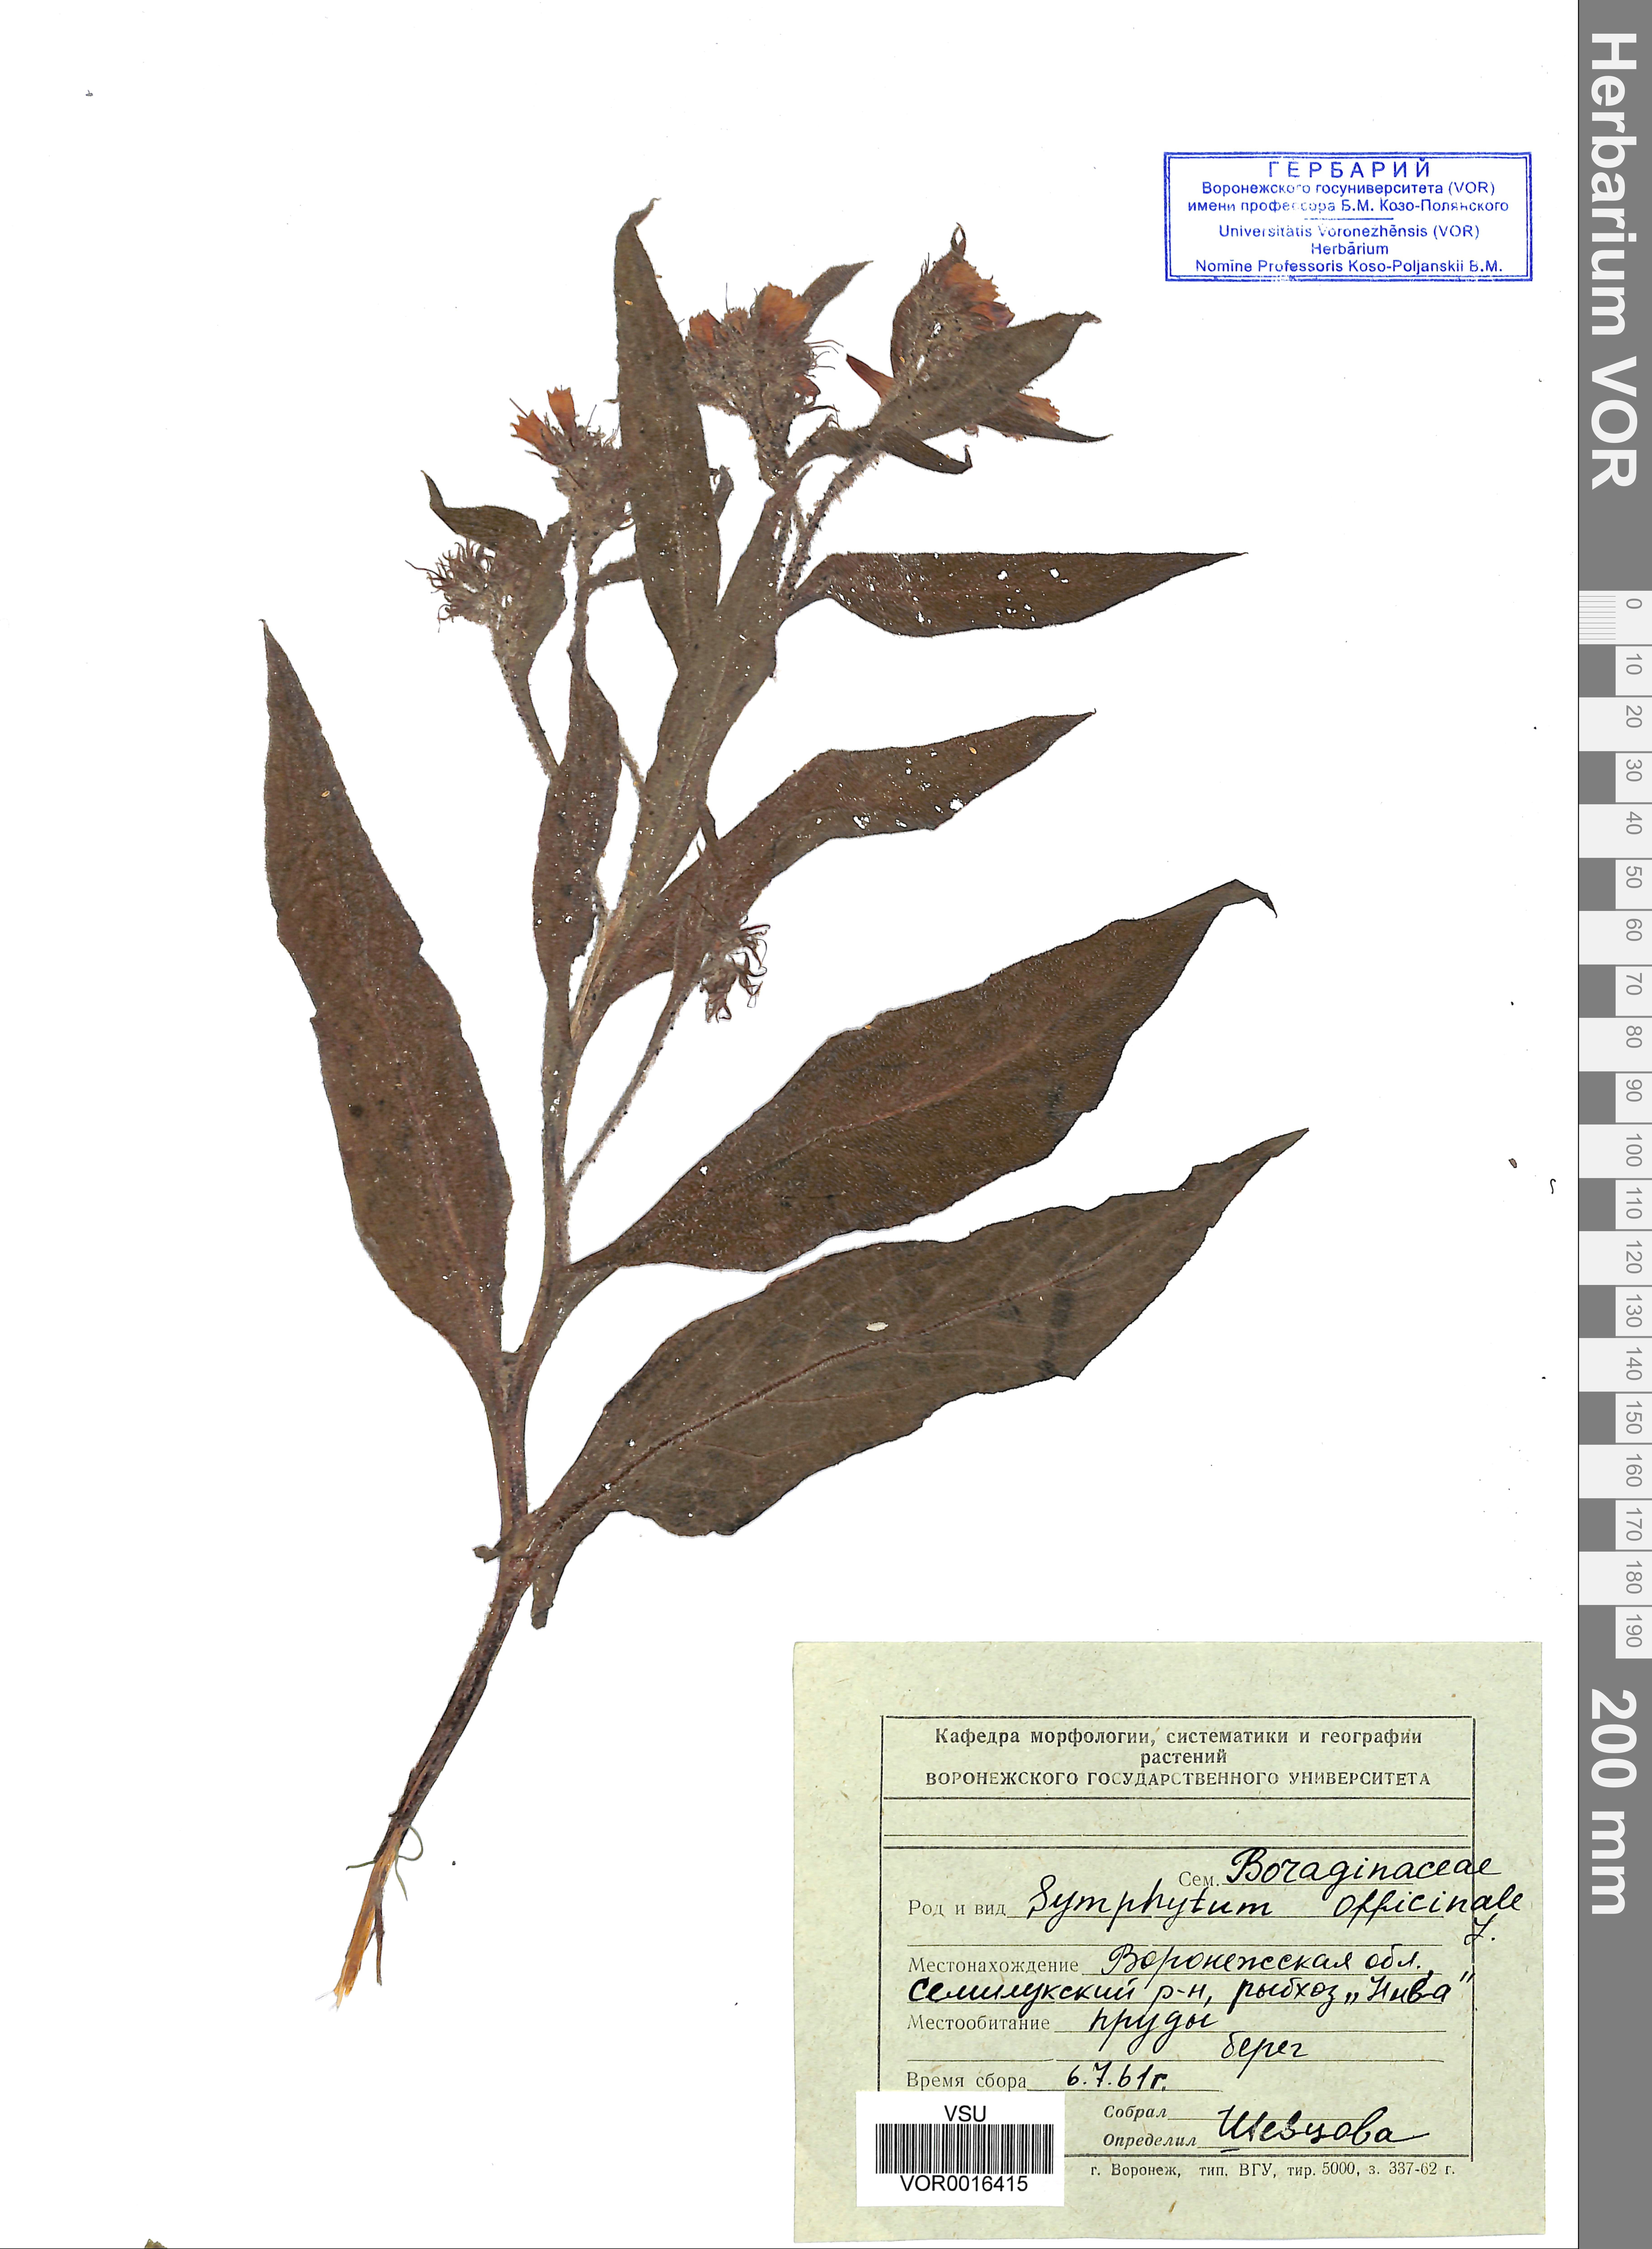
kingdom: Plantae
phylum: Tracheophyta
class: Magnoliopsida
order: Boraginales
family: Boraginaceae
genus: Symphytum
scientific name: Symphytum officinale
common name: Common comfrey
